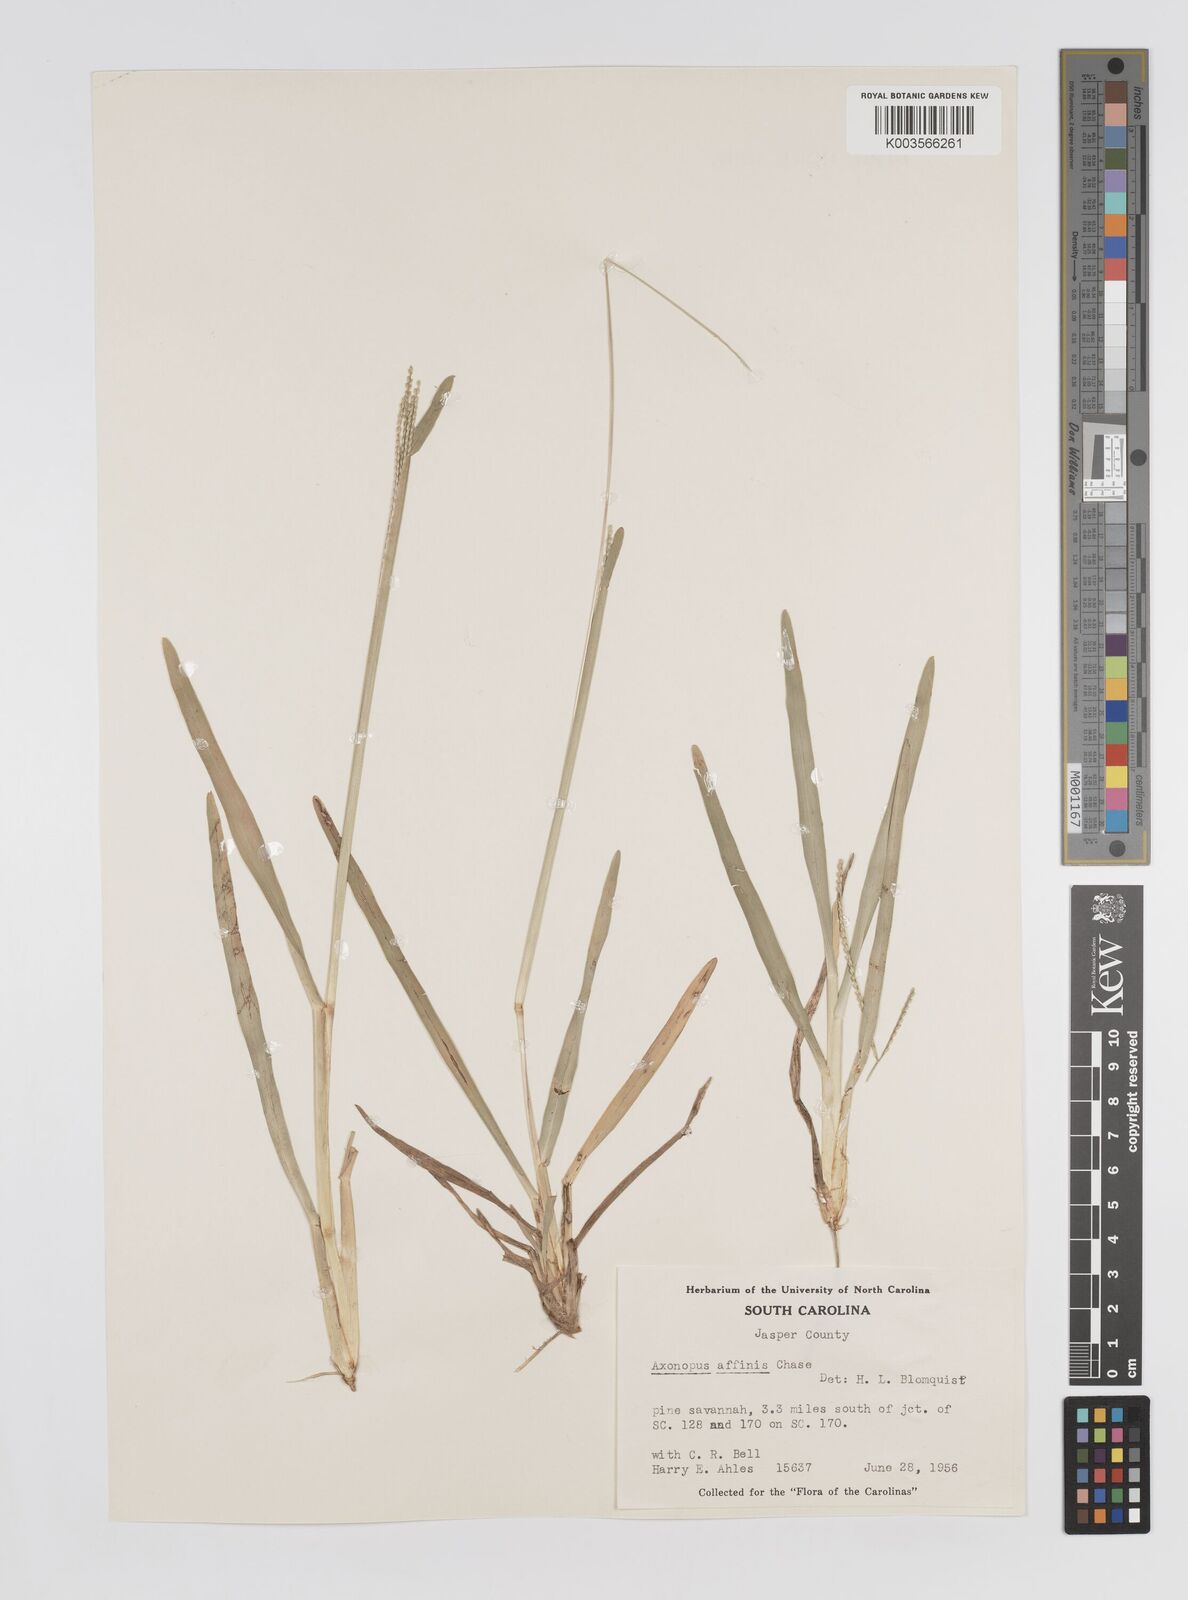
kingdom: Plantae
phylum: Tracheophyta
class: Liliopsida
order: Poales
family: Poaceae
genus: Axonopus
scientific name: Axonopus fissifolius
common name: Common carpetgrass
